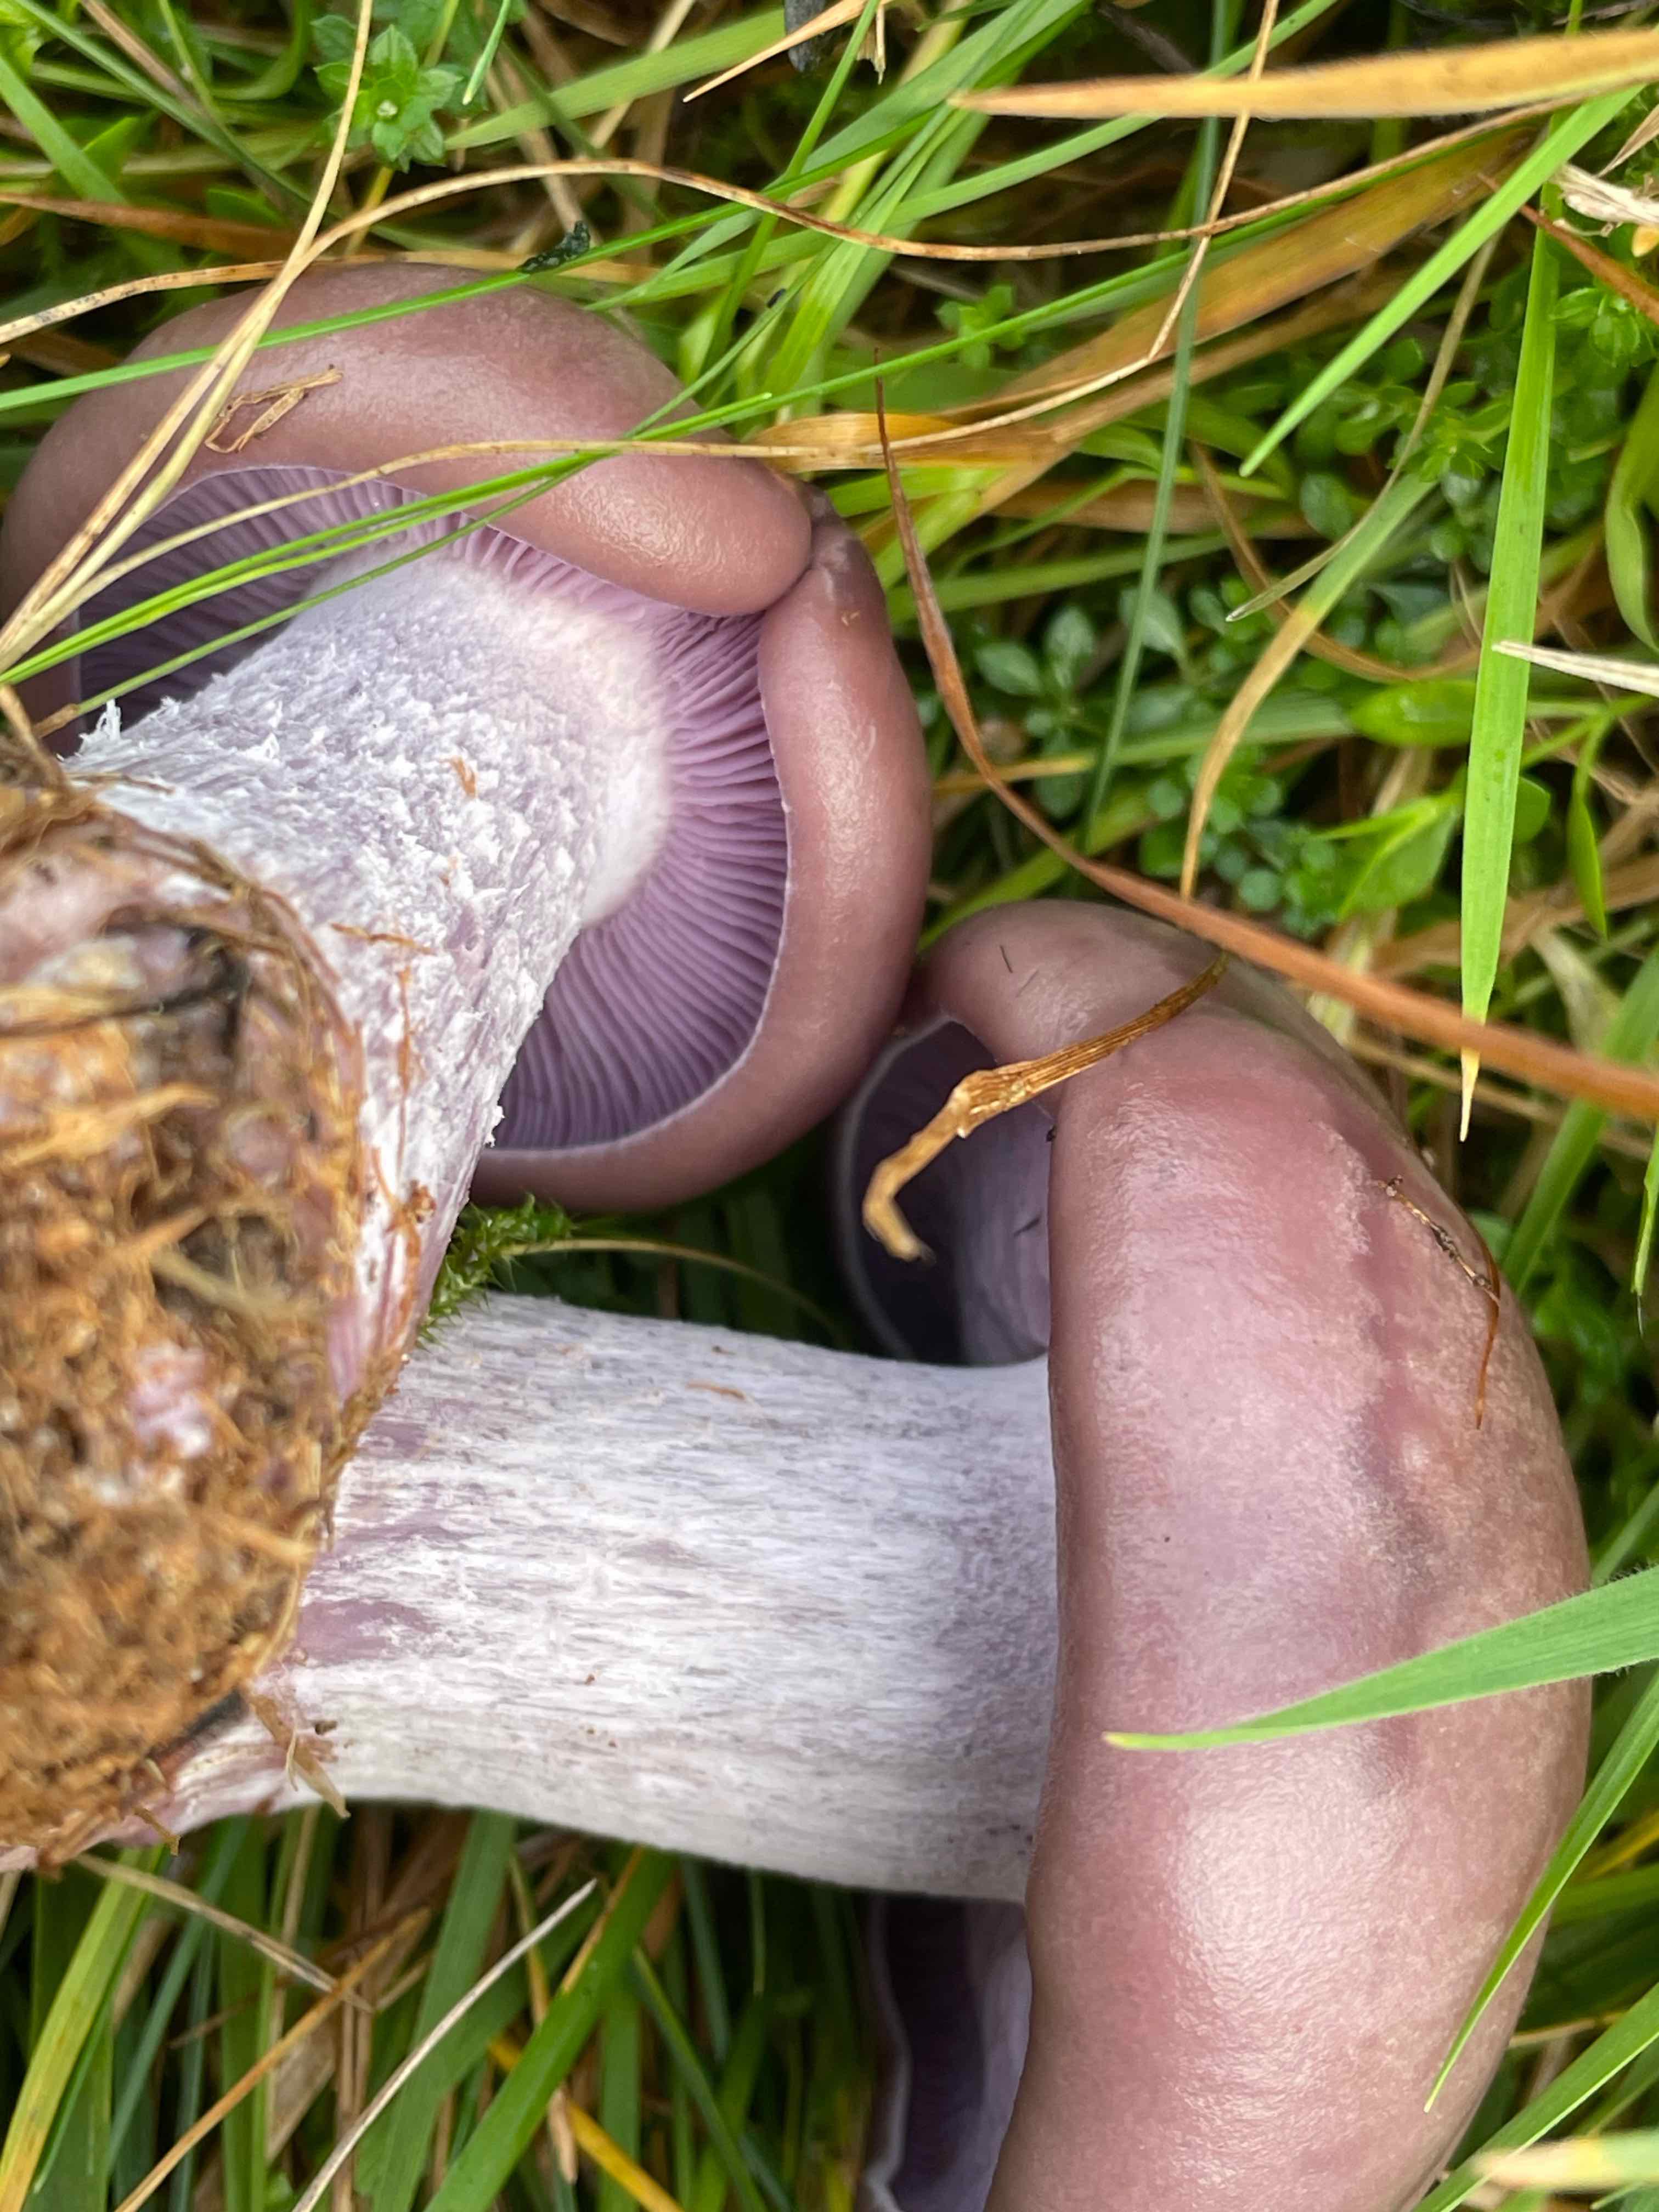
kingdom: Fungi
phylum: Basidiomycota
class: Agaricomycetes
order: Agaricales
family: Tricholomataceae
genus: Lepista
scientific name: Lepista nuda
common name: violet hekseringshat
